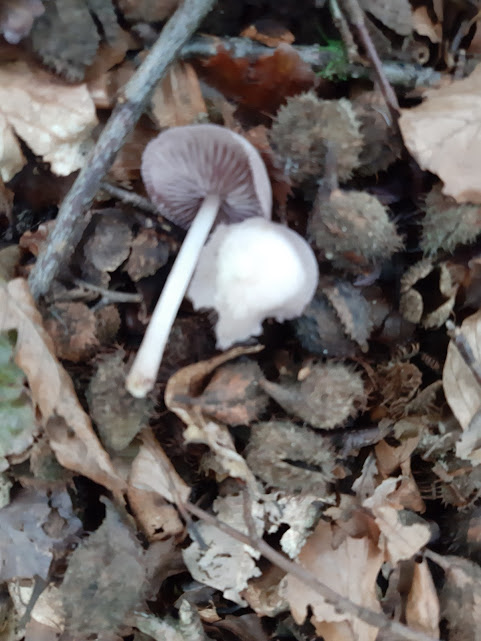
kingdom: Fungi
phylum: Basidiomycota
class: Agaricomycetes
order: Agaricales
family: Mycenaceae
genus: Mycena
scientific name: Mycena
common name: huesvamp
